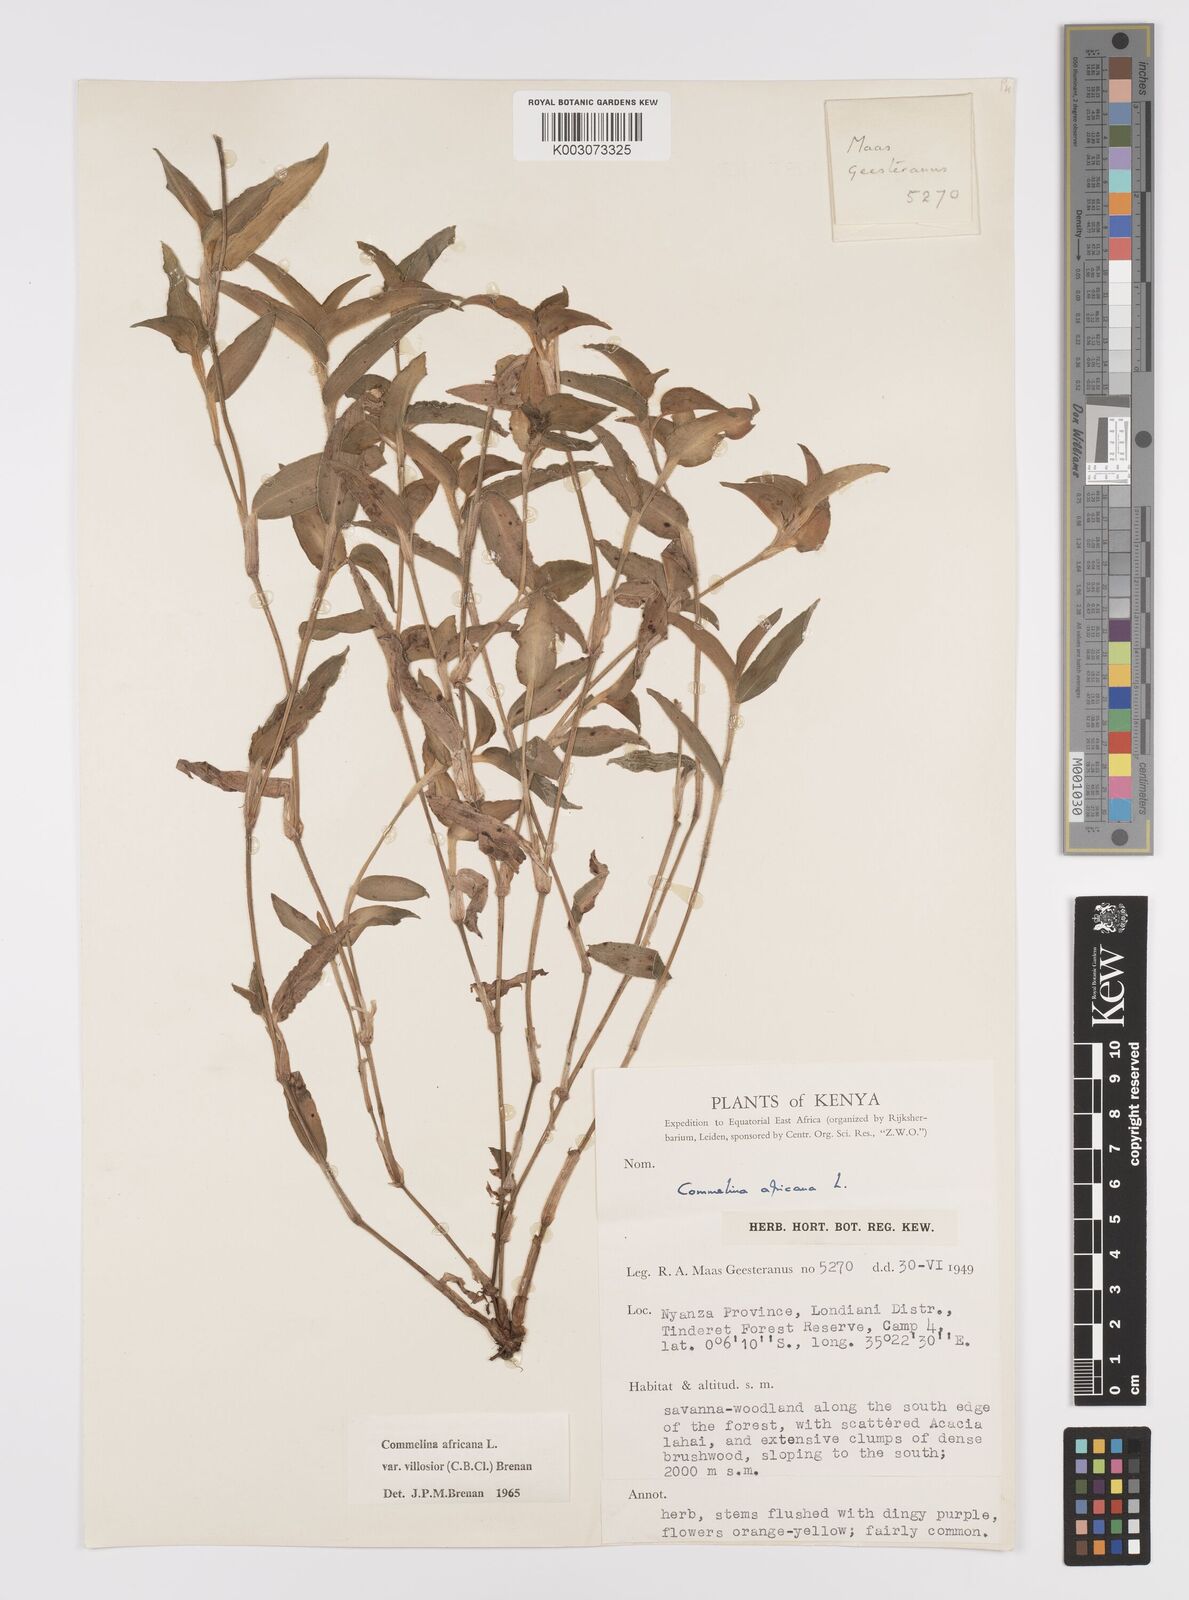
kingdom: Plantae
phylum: Tracheophyta
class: Liliopsida
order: Commelinales
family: Commelinaceae
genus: Commelina
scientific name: Commelina africana
